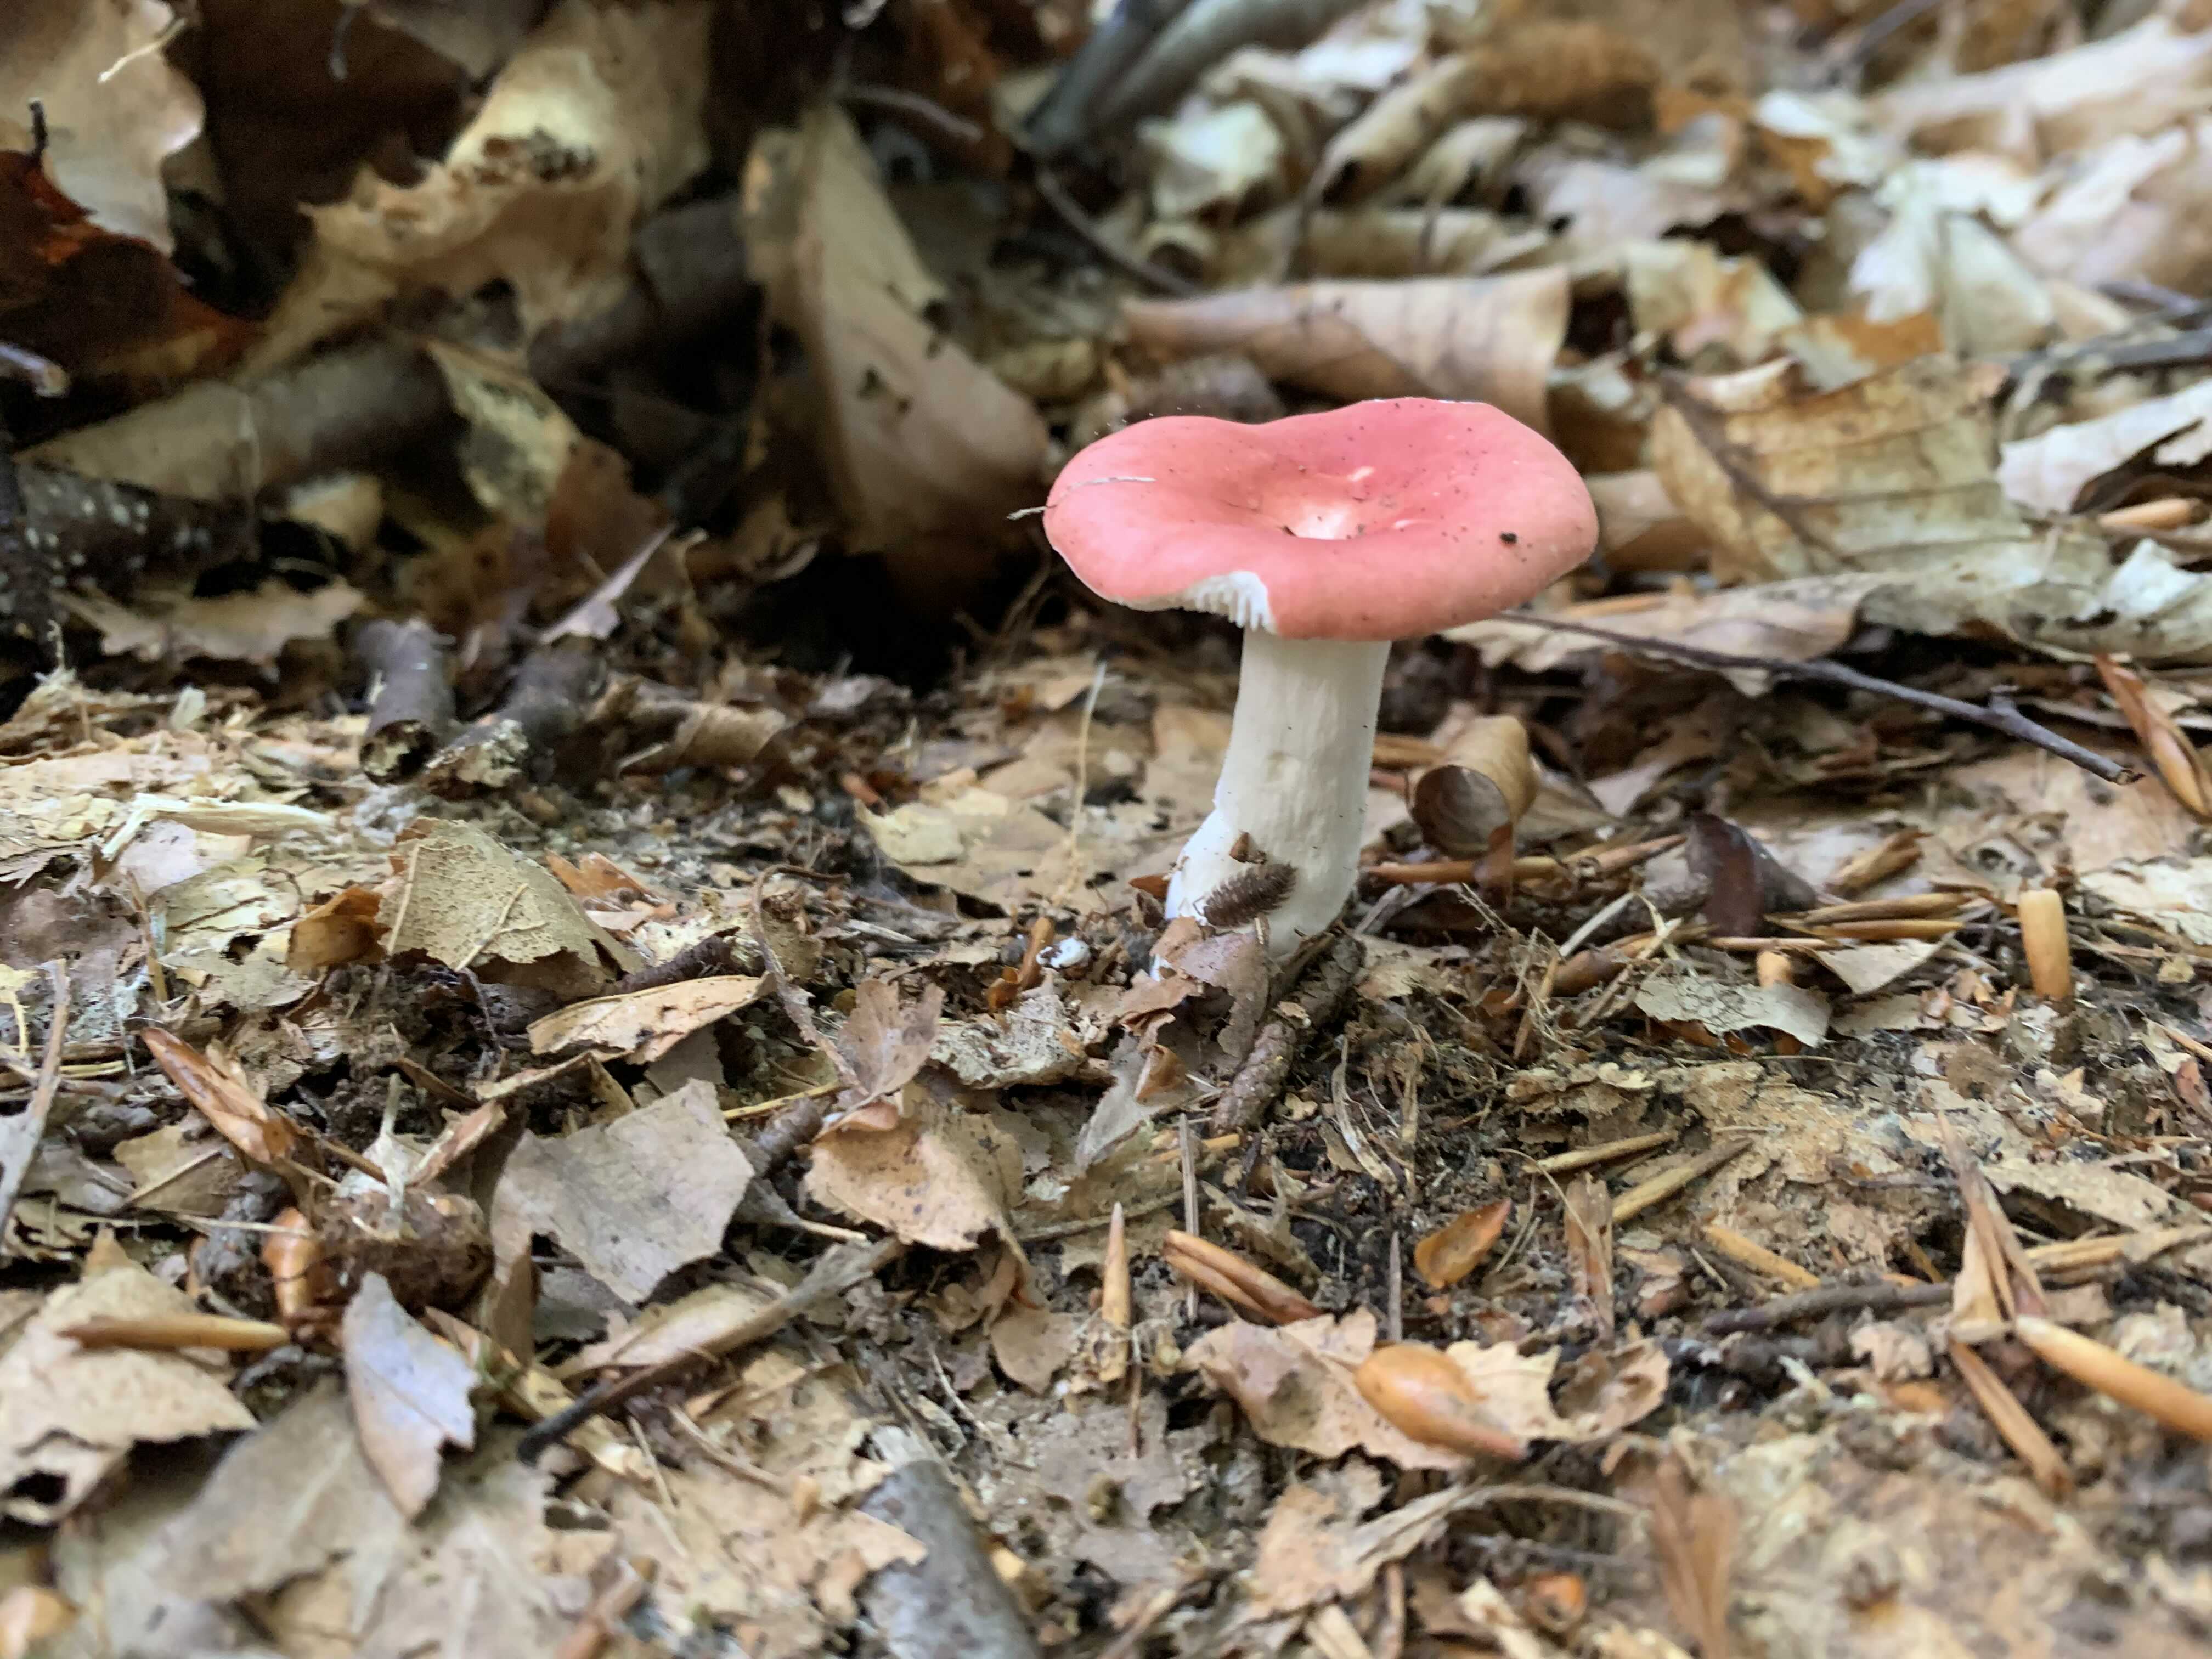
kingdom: Fungi
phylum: Basidiomycota
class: Agaricomycetes
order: Russulales
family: Russulaceae
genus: Russula
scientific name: Russula silvestris
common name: mellemstor gift-skørhat
